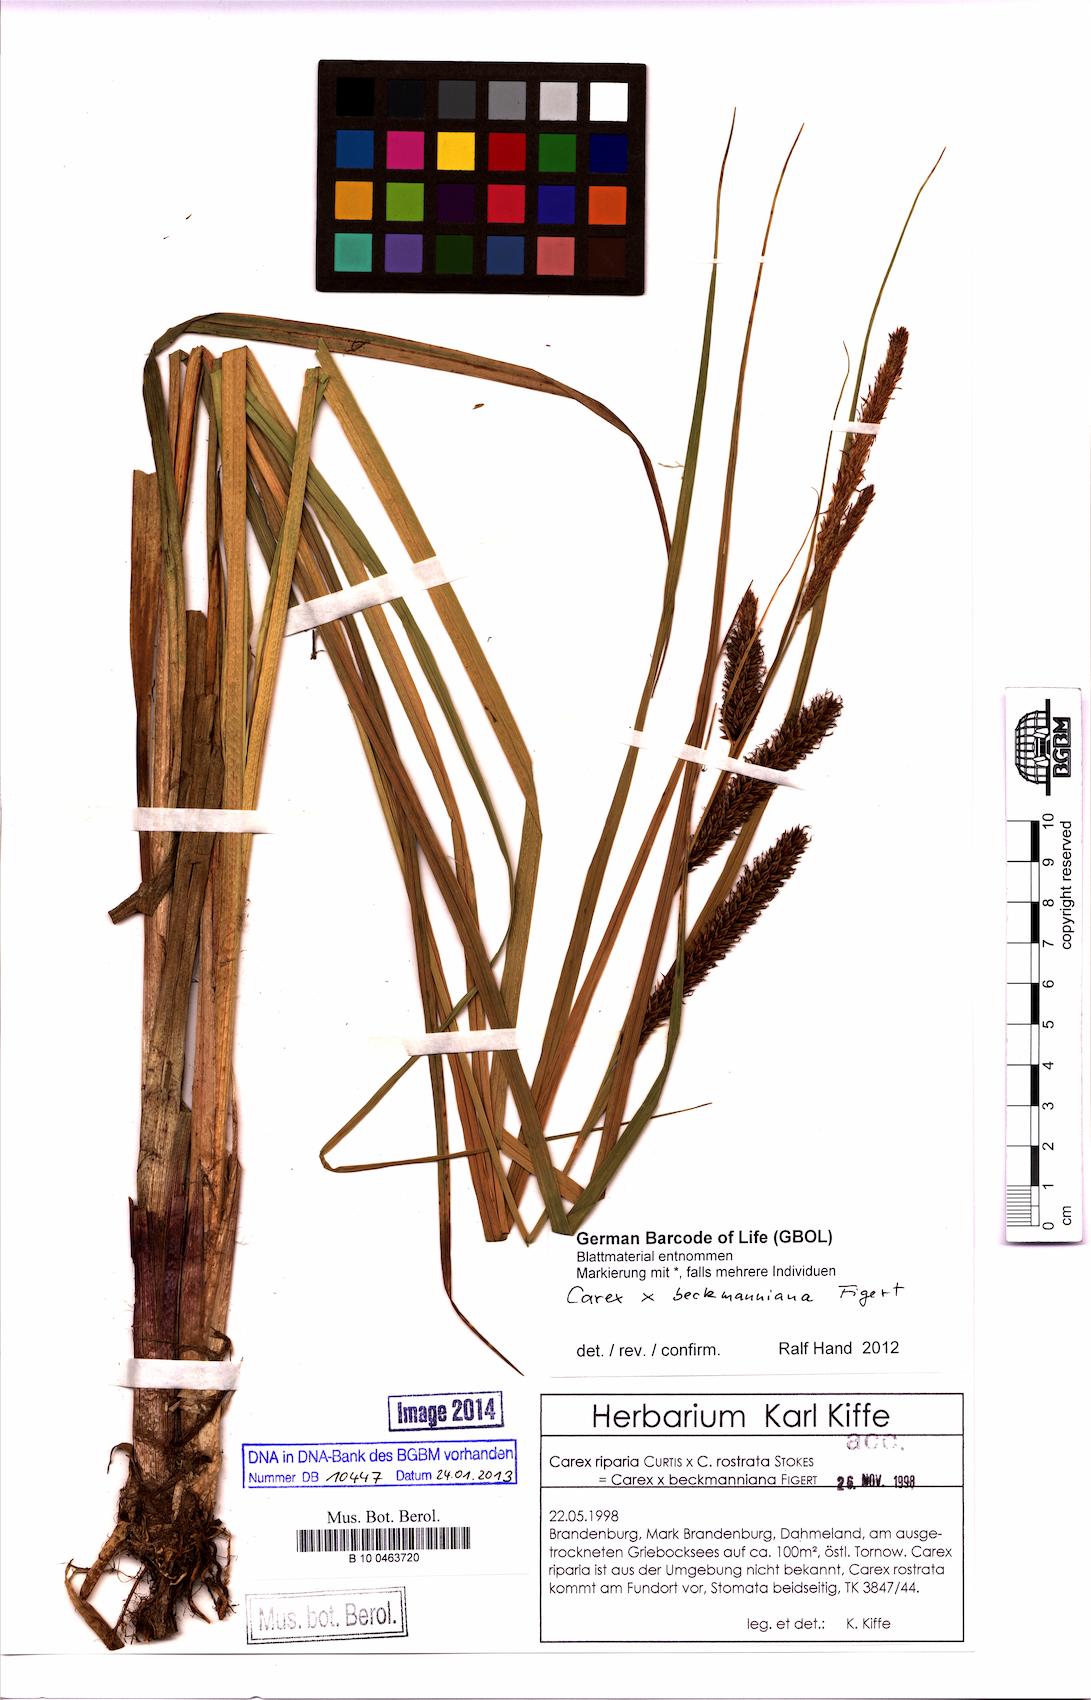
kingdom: Plantae
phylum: Tracheophyta
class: Liliopsida
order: Poales
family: Cyperaceae
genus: Carex
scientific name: Carex beckmanniana
